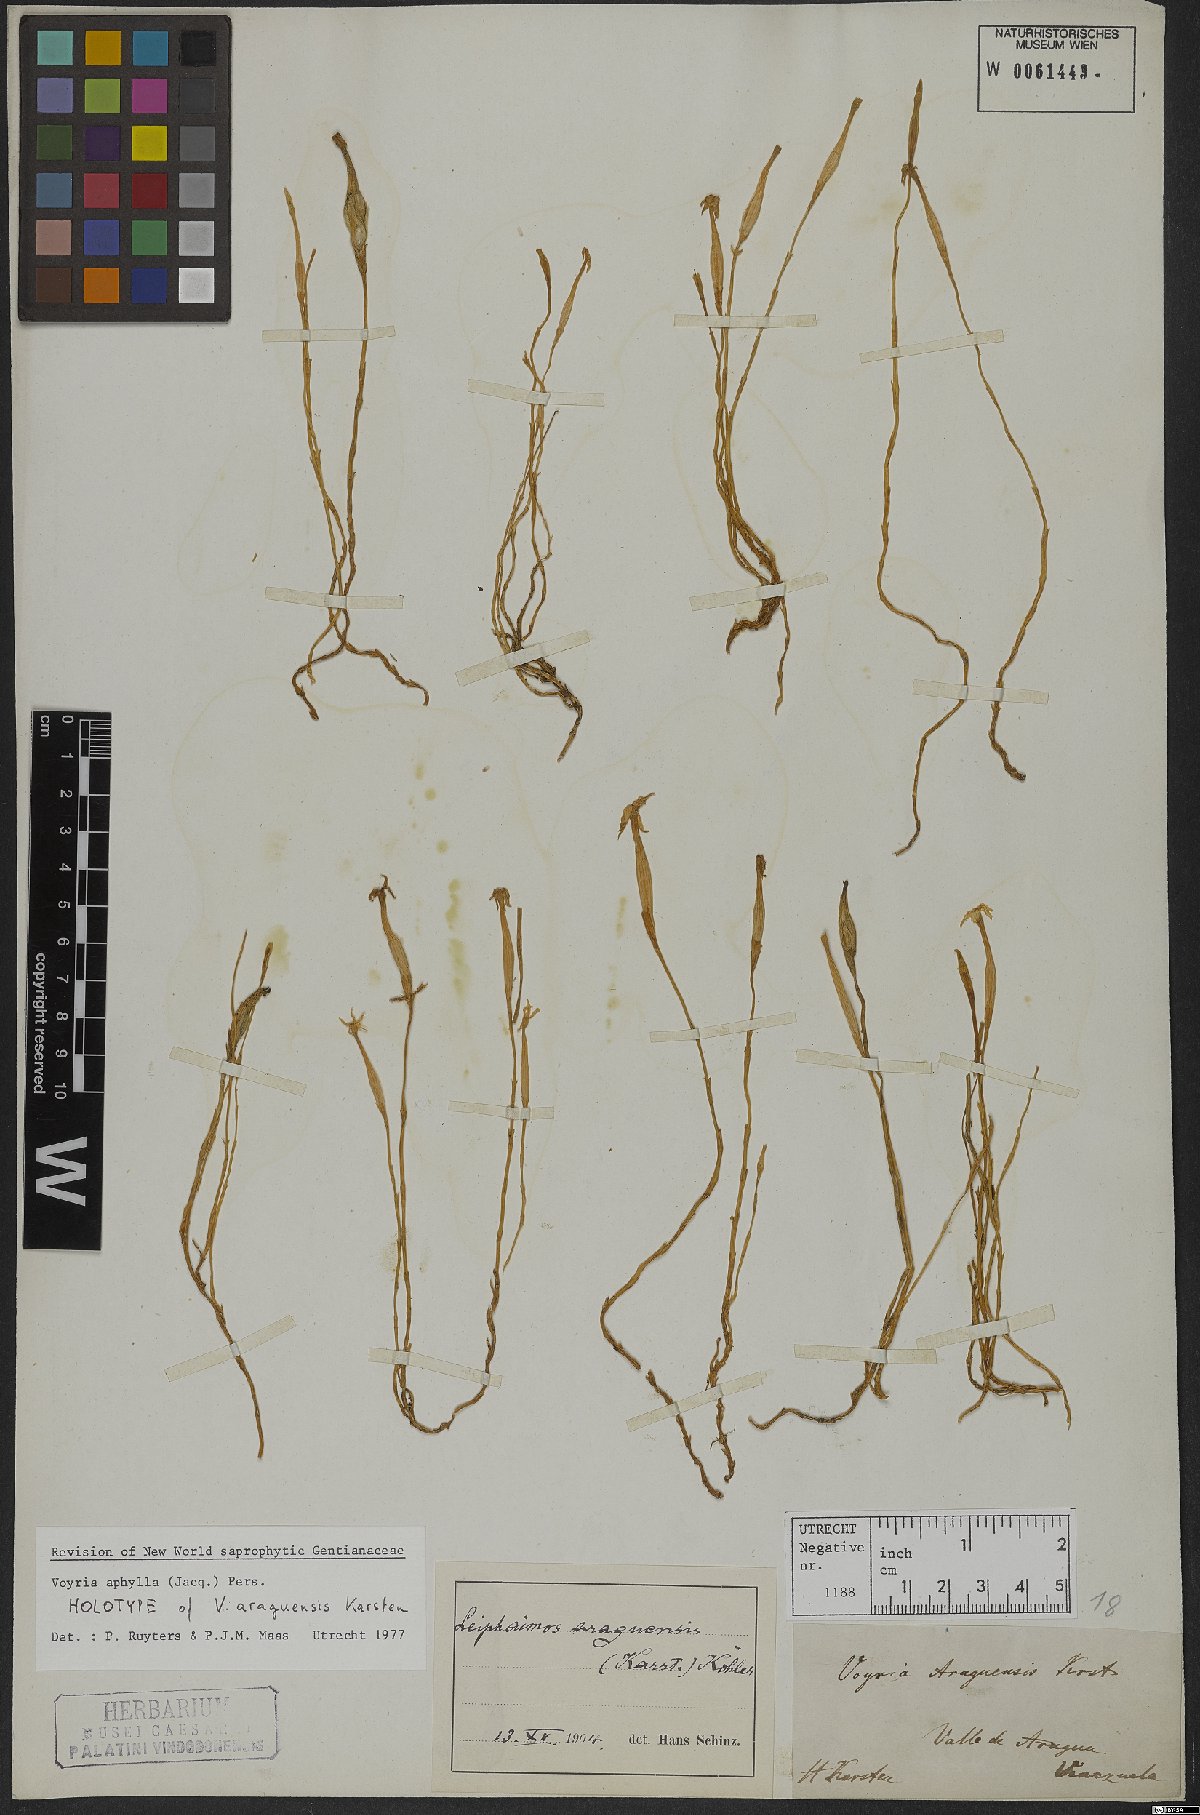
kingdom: Plantae
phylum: Tracheophyta
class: Magnoliopsida
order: Gentianales
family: Gentianaceae
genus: Voyria
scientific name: Voyria aphylla
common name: Leafless ghost plant
